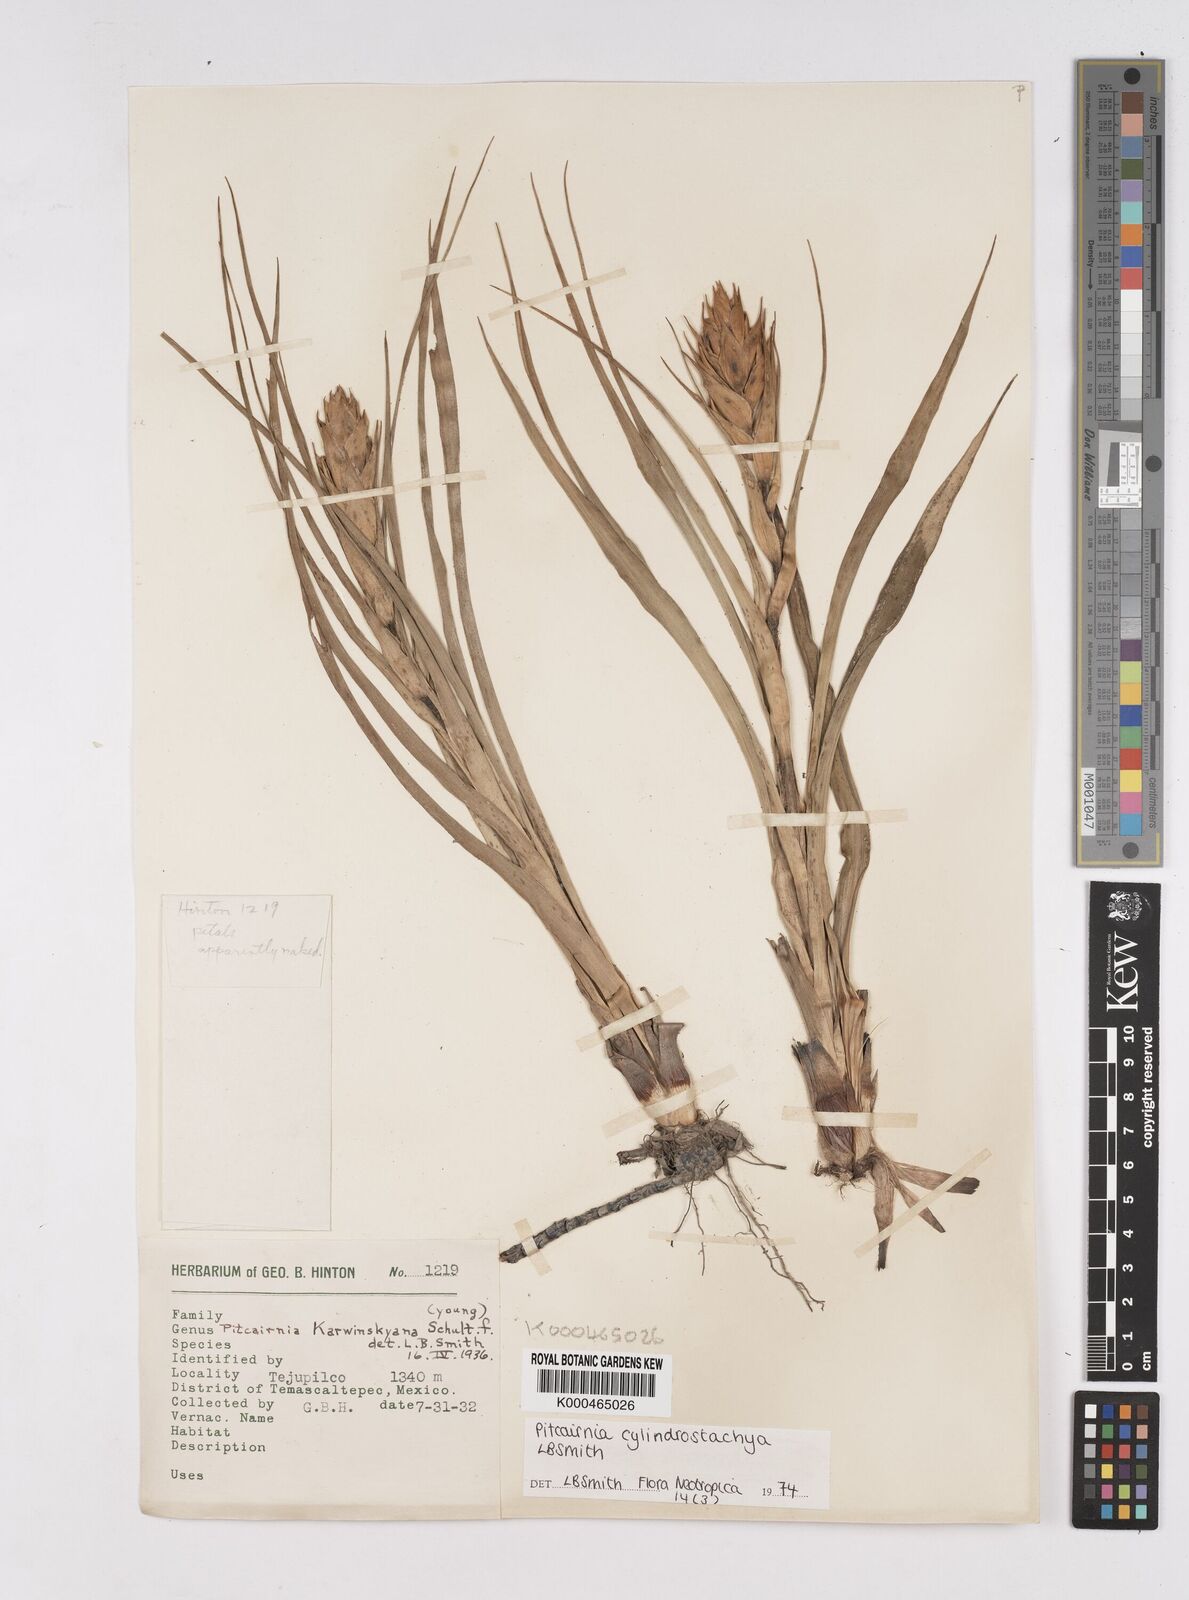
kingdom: Plantae
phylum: Tracheophyta
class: Liliopsida
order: Poales
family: Bromeliaceae
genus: Pitcairnia
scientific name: Pitcairnia cylindrostachya
